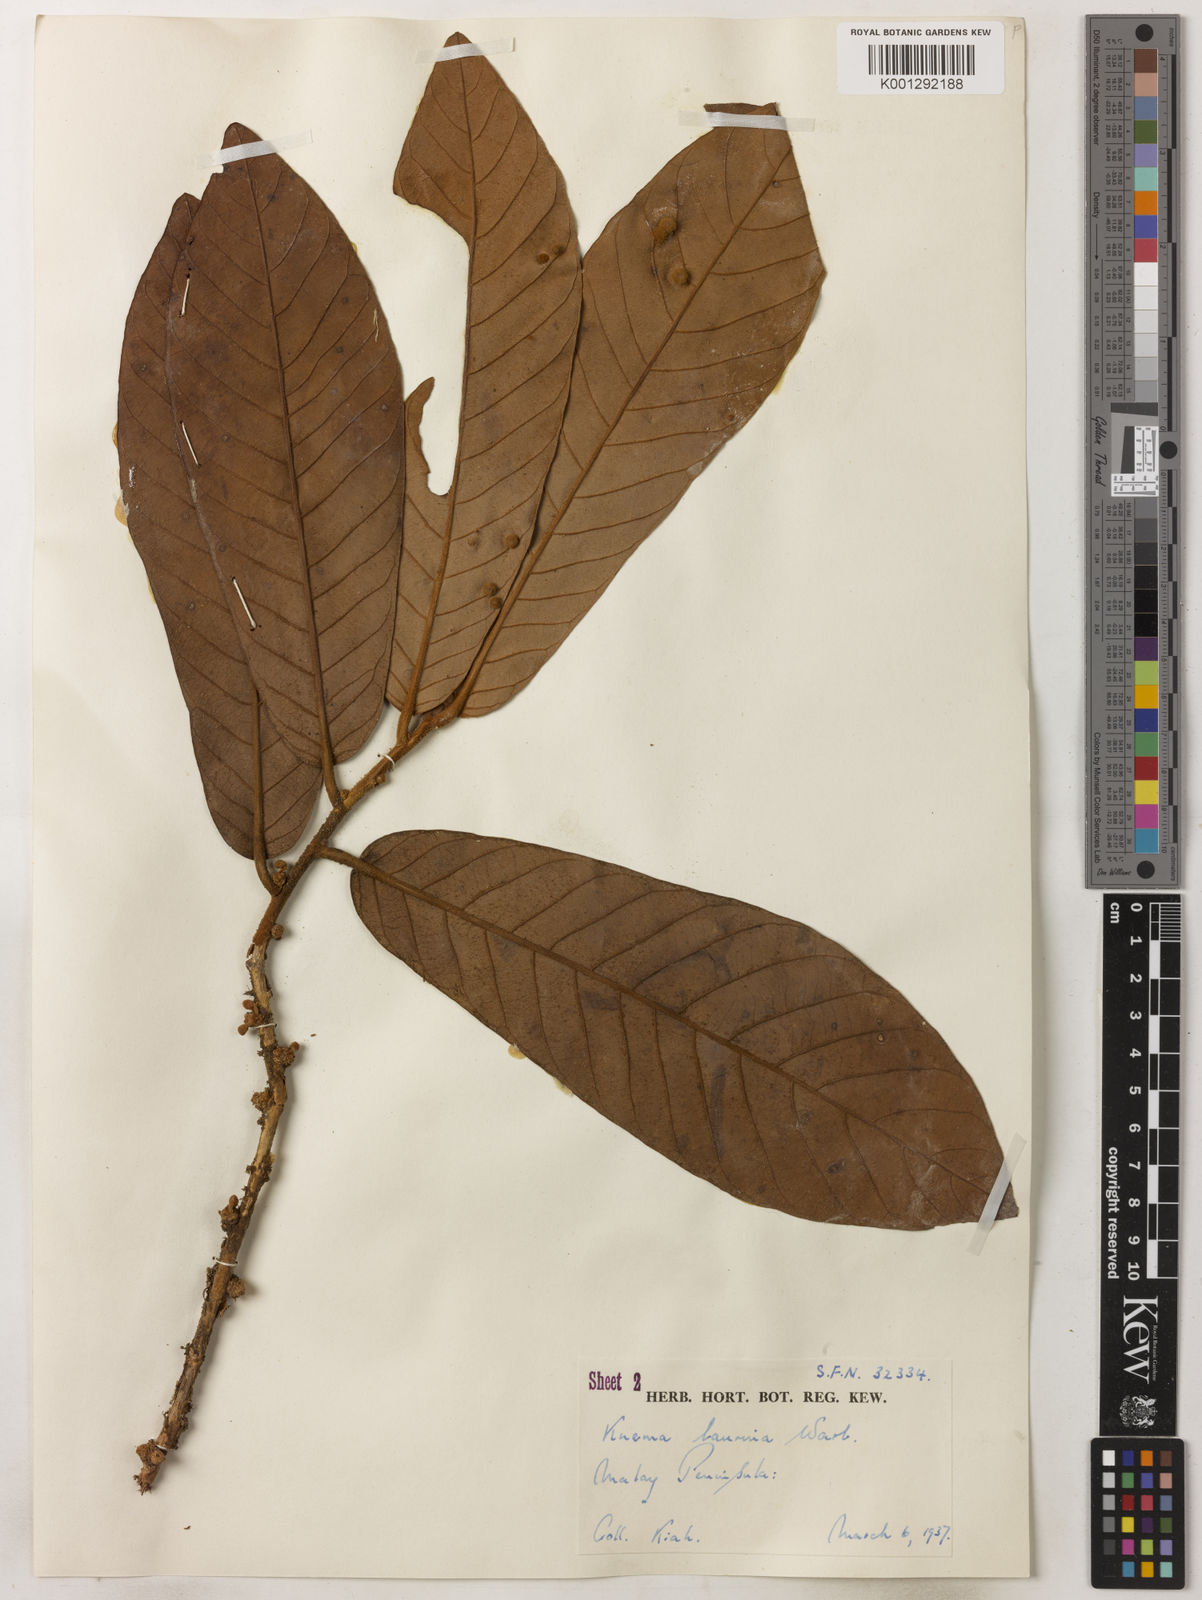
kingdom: Plantae
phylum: Tracheophyta
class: Magnoliopsida
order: Magnoliales
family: Myristicaceae
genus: Knema
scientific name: Knema laurina
